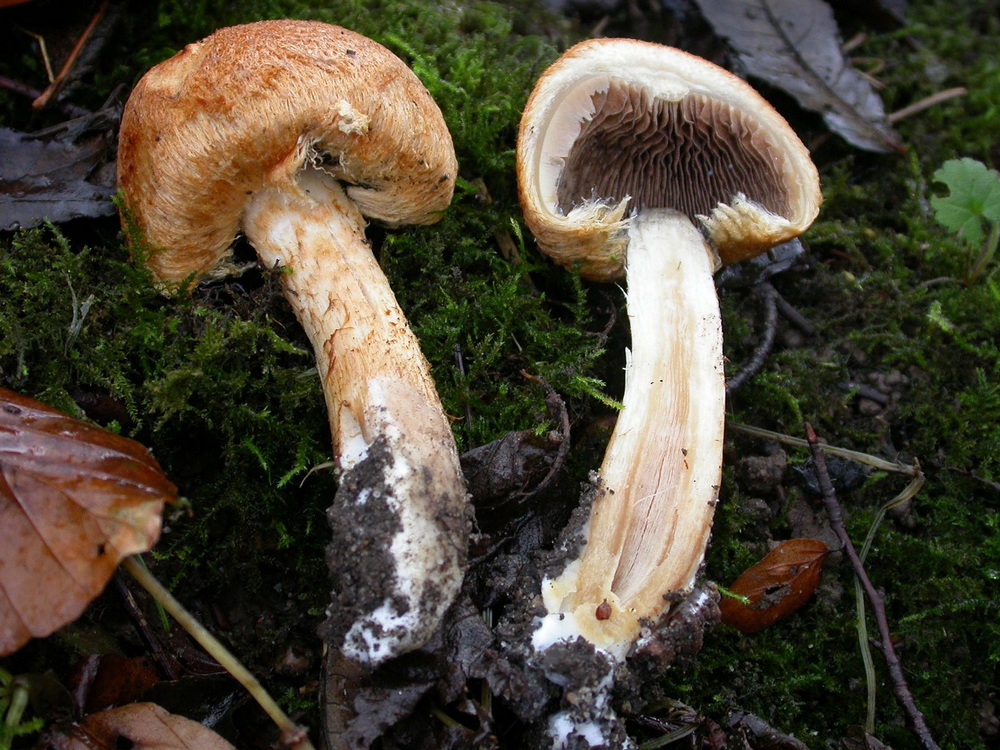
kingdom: Fungi
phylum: Basidiomycota
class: Agaricomycetes
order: Agaricales
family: Psathyrellaceae
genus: Lacrymaria
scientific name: Lacrymaria pyrotricha
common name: ildhåret mørkhat
